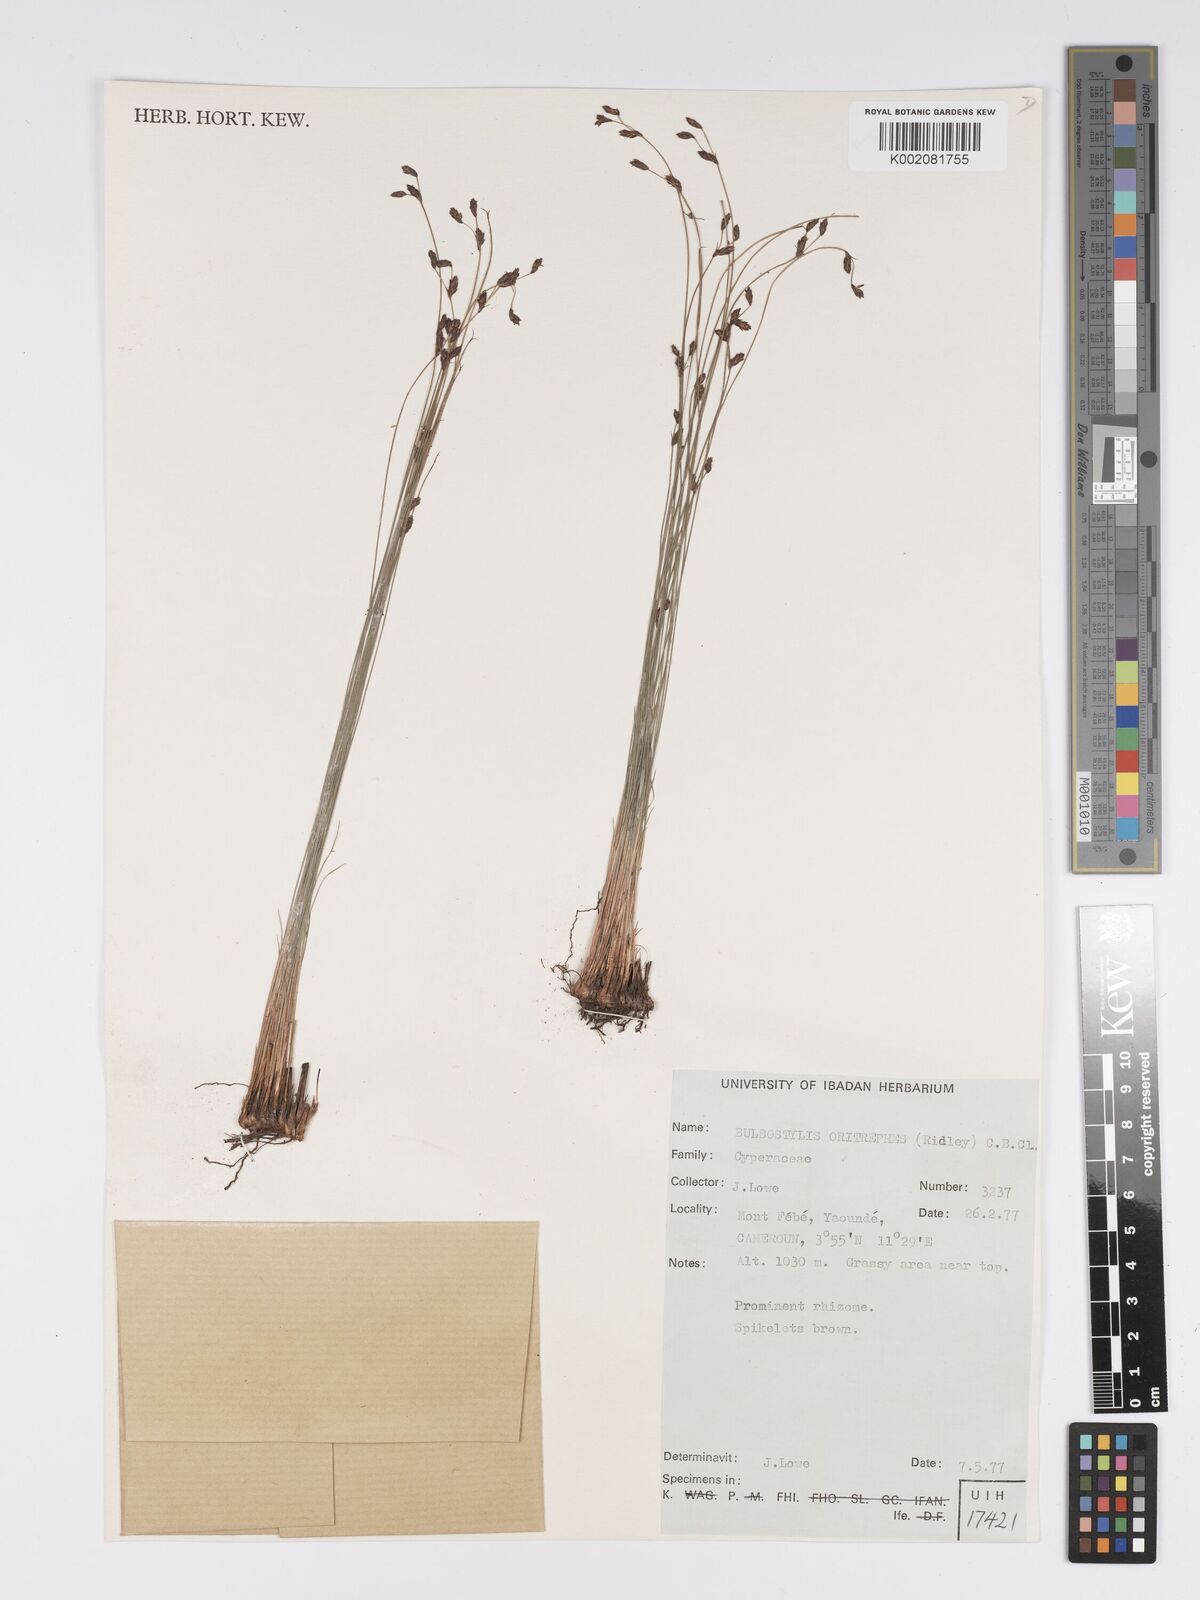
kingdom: Plantae
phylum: Tracheophyta
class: Liliopsida
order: Poales
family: Cyperaceae
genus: Bulbostylis
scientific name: Bulbostylis oritrephes
